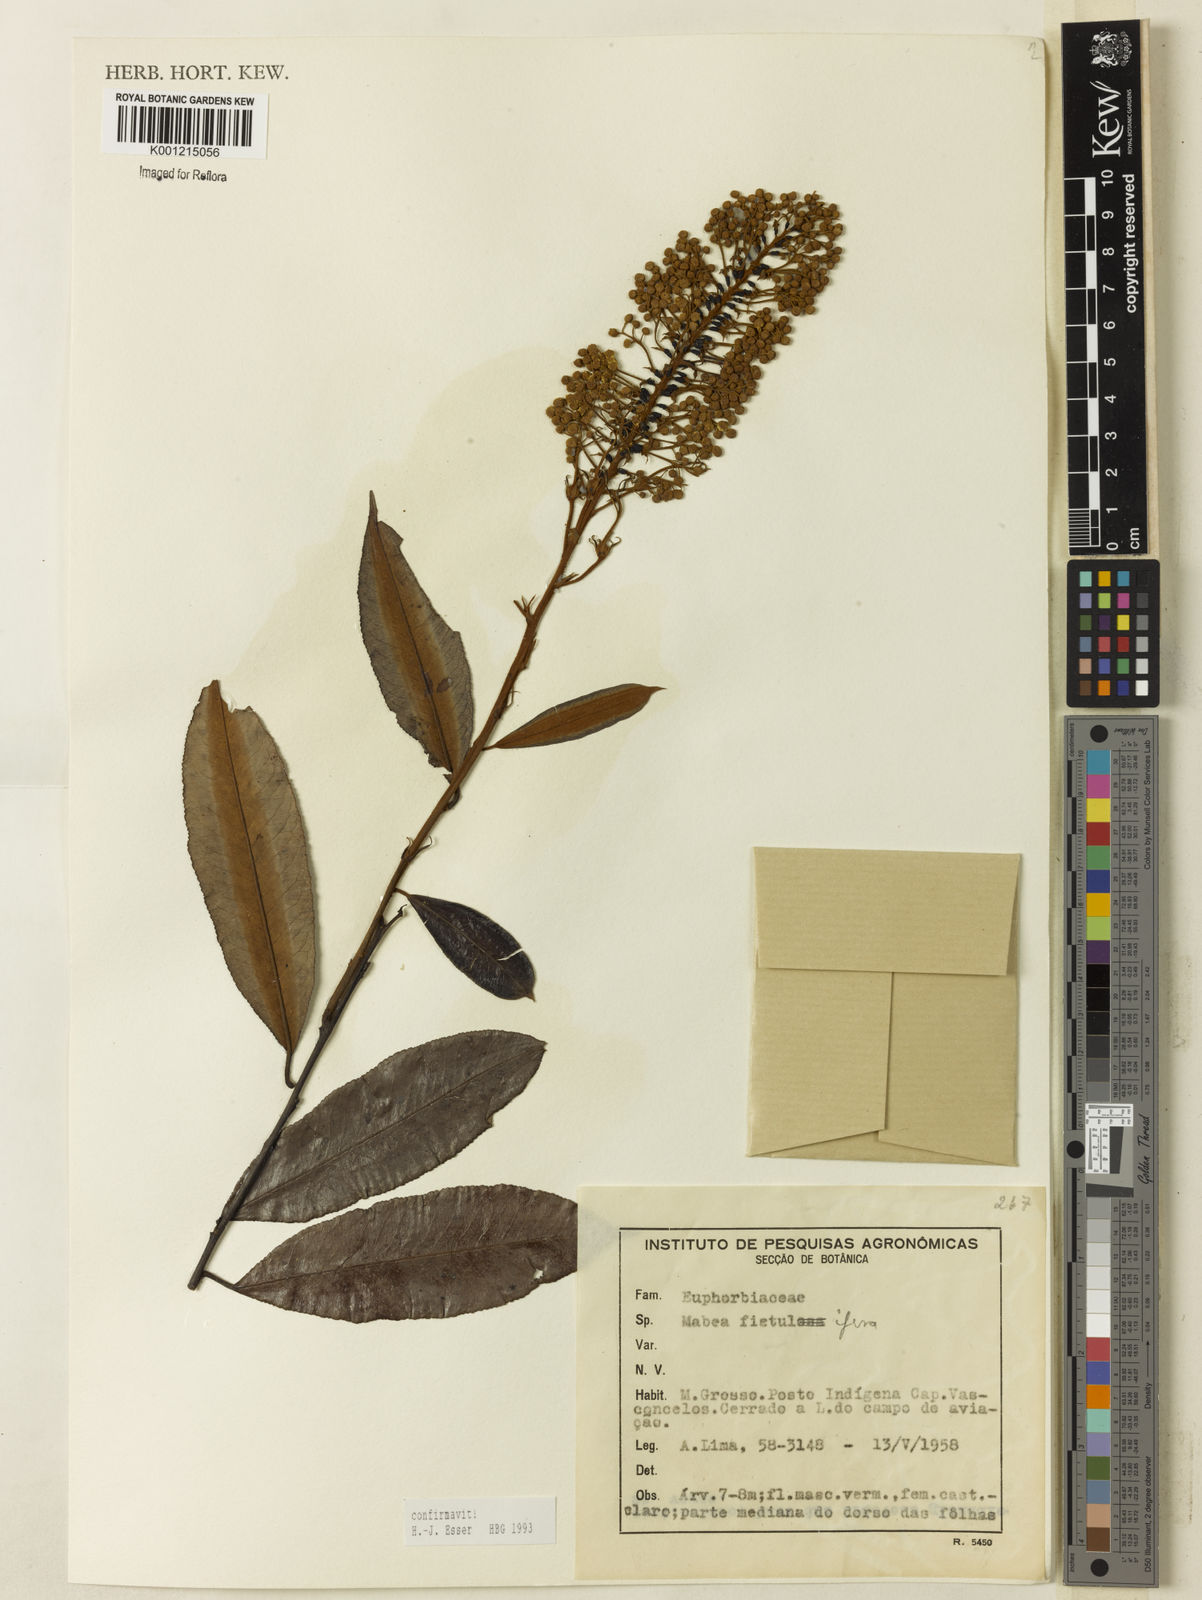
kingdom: Plantae
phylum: Tracheophyta
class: Magnoliopsida
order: Malpighiales
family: Euphorbiaceae
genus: Mabea
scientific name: Mabea fistulifera
